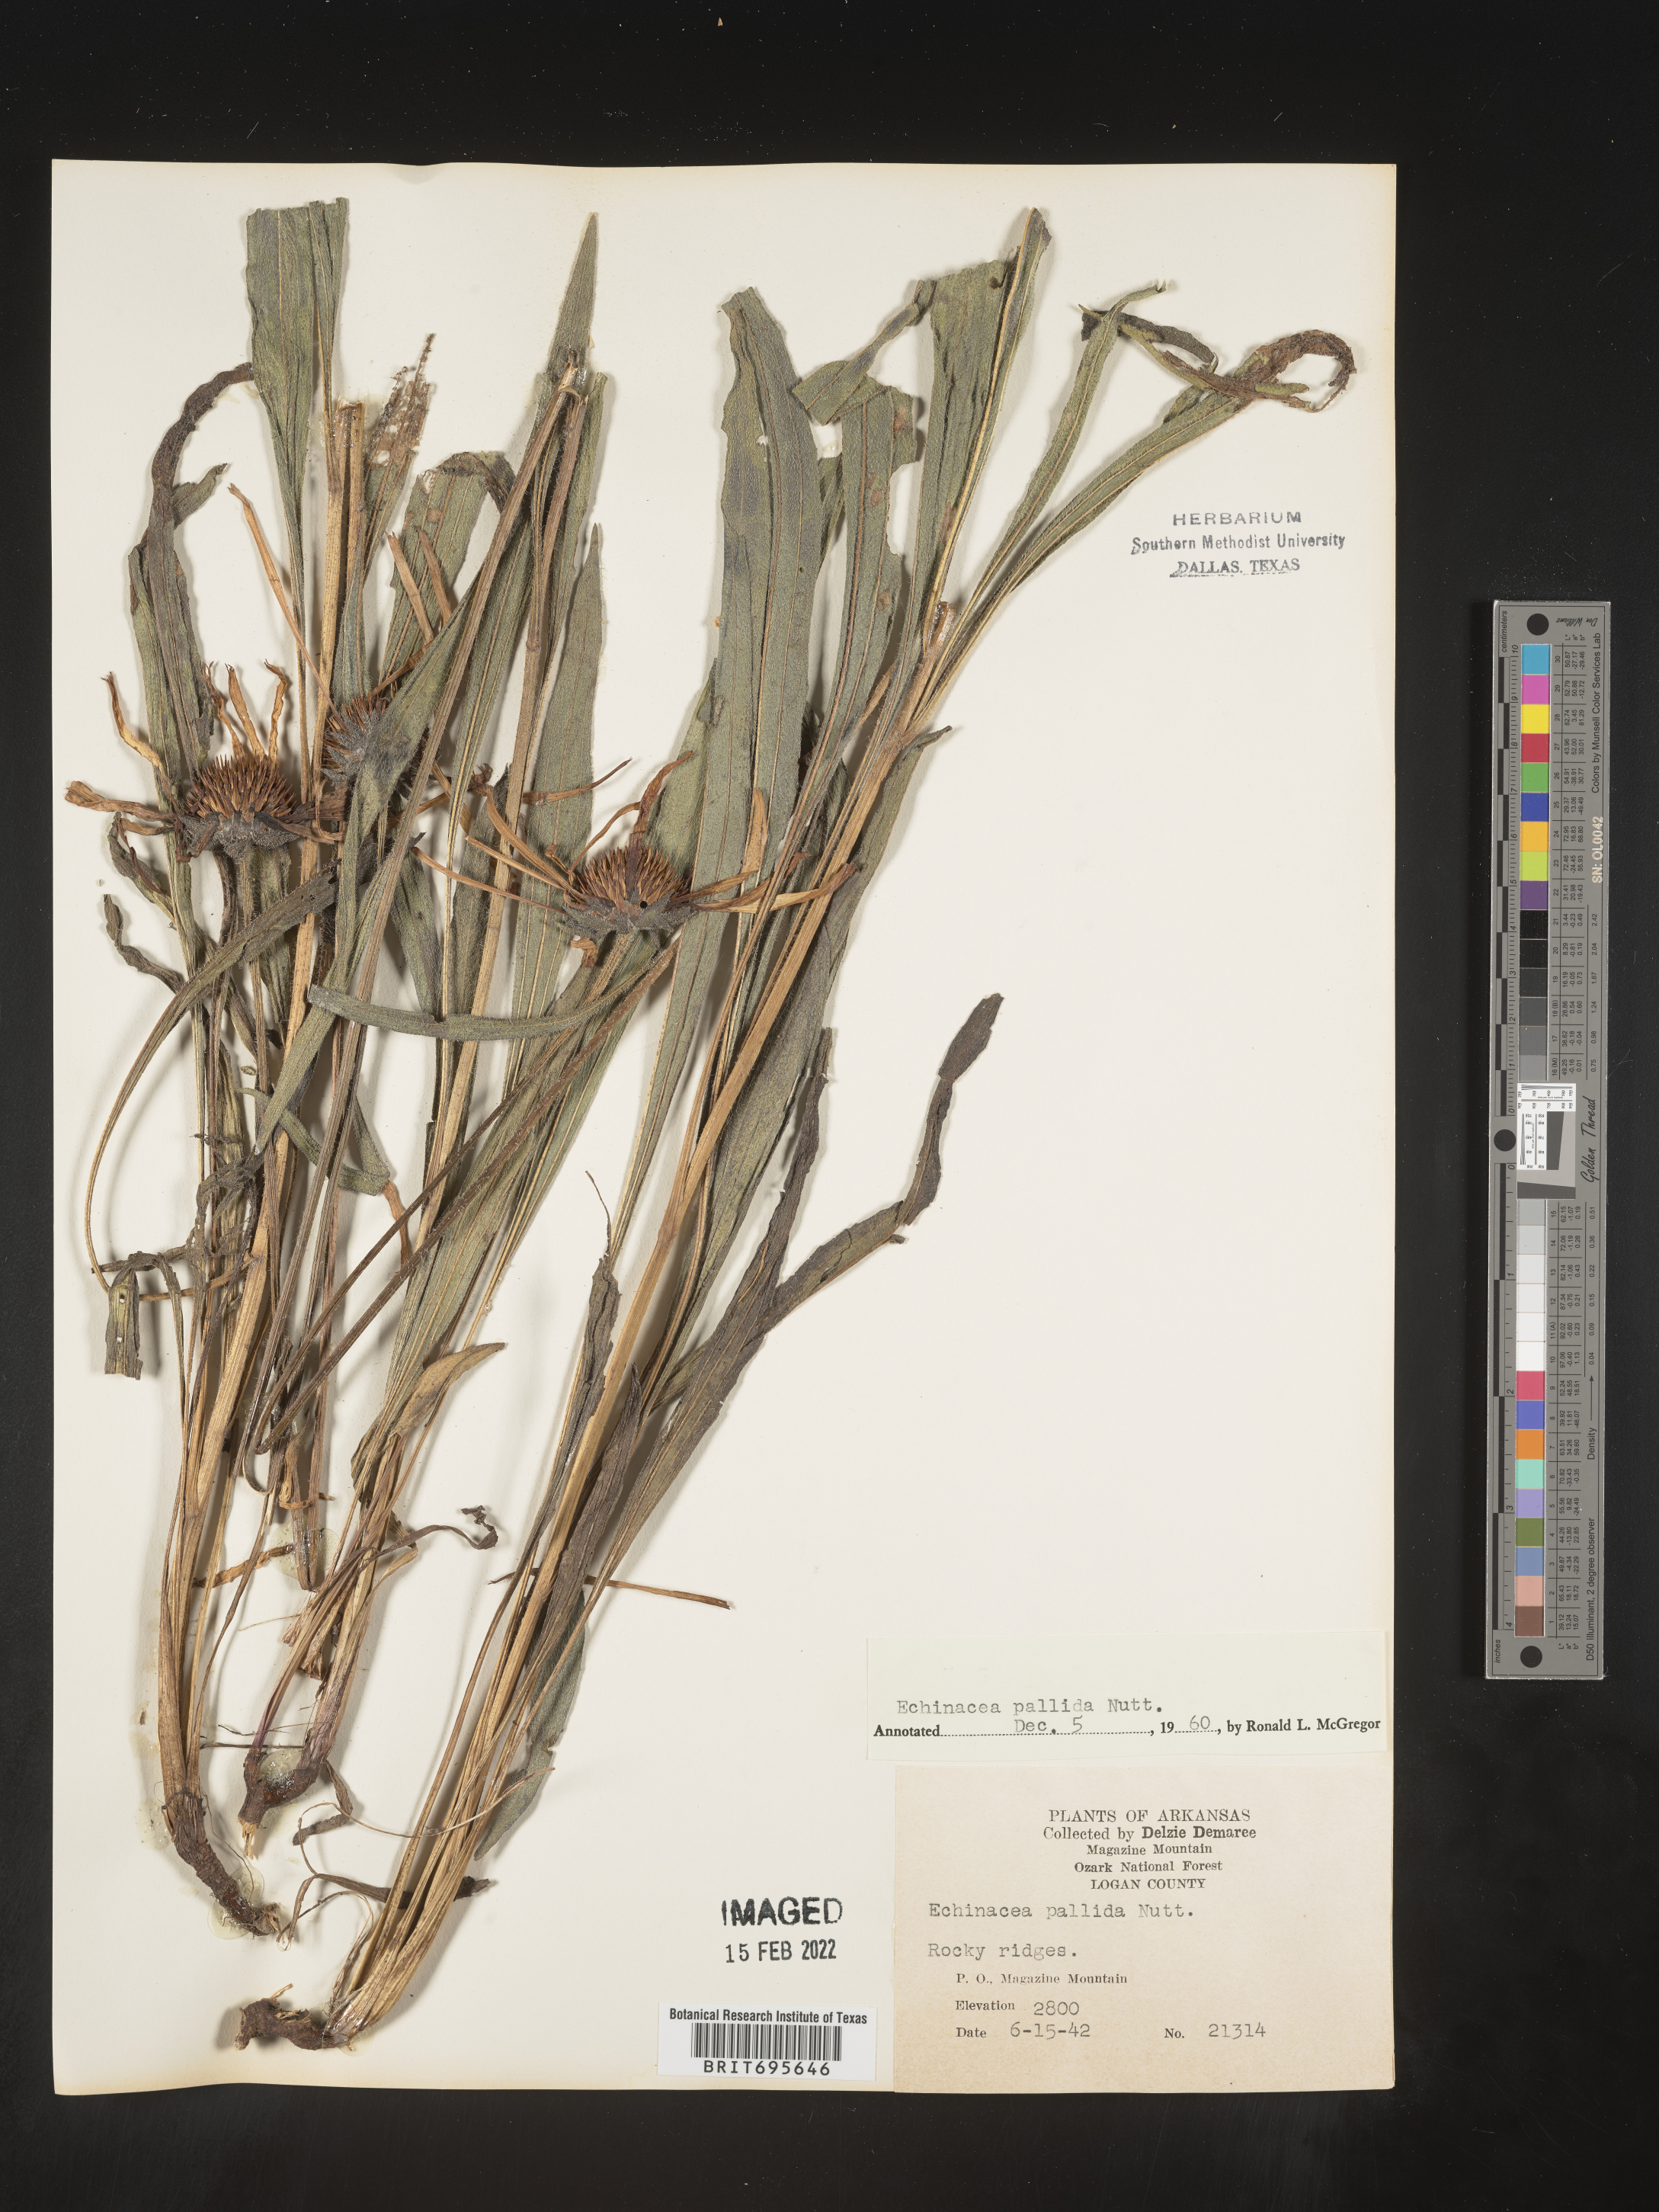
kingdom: Plantae
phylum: Tracheophyta
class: Magnoliopsida
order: Asterales
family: Asteraceae
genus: Echinacea
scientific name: Echinacea pallida
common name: Pale echinacea
